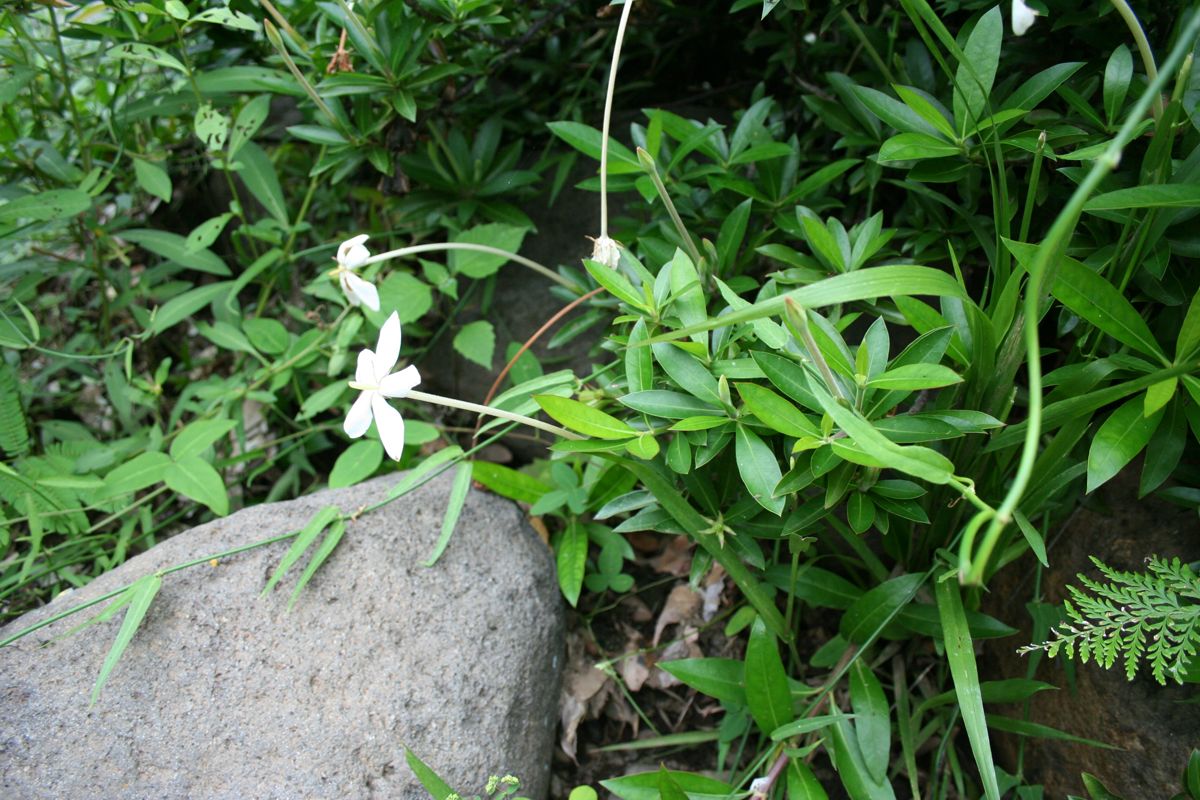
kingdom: Plantae
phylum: Tracheophyta
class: Magnoliopsida
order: Gentianales
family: Rubiaceae
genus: Augusta
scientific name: Augusta rivalis
